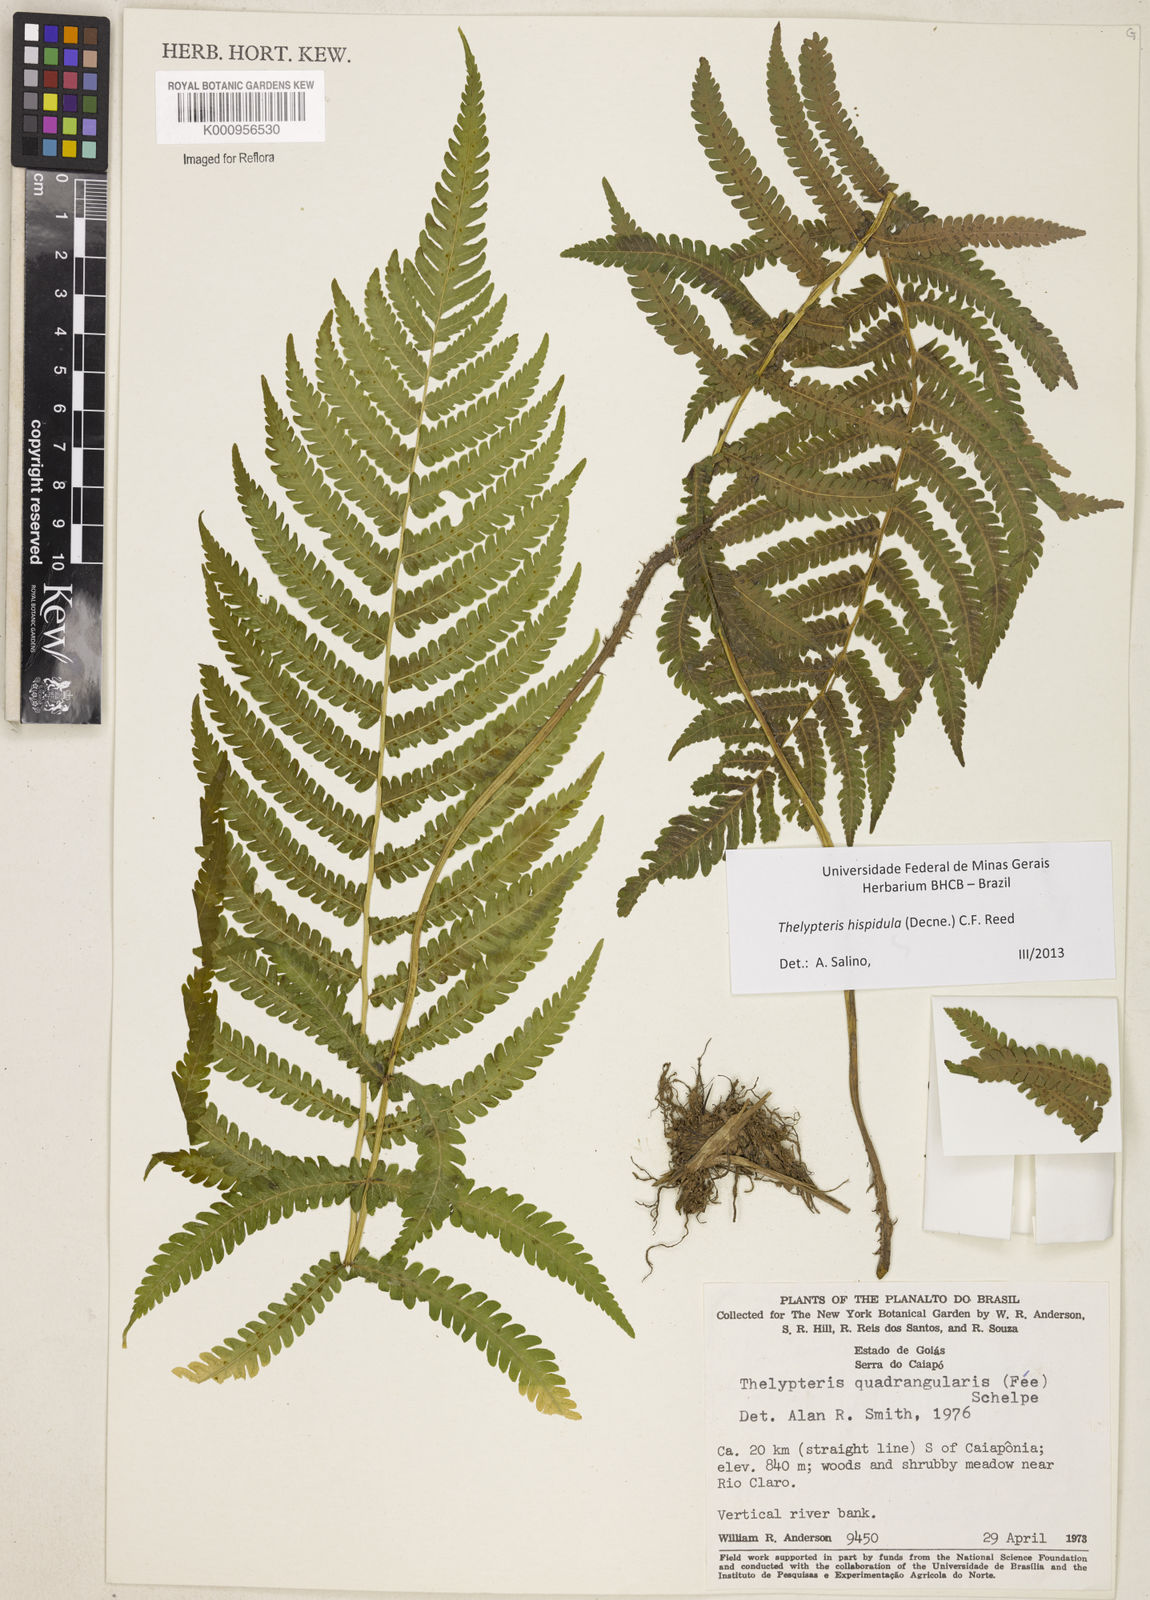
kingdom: Plantae
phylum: Tracheophyta
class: Polypodiopsida
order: Polypodiales
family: Thelypteridaceae
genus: Christella
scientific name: Christella hispidula
